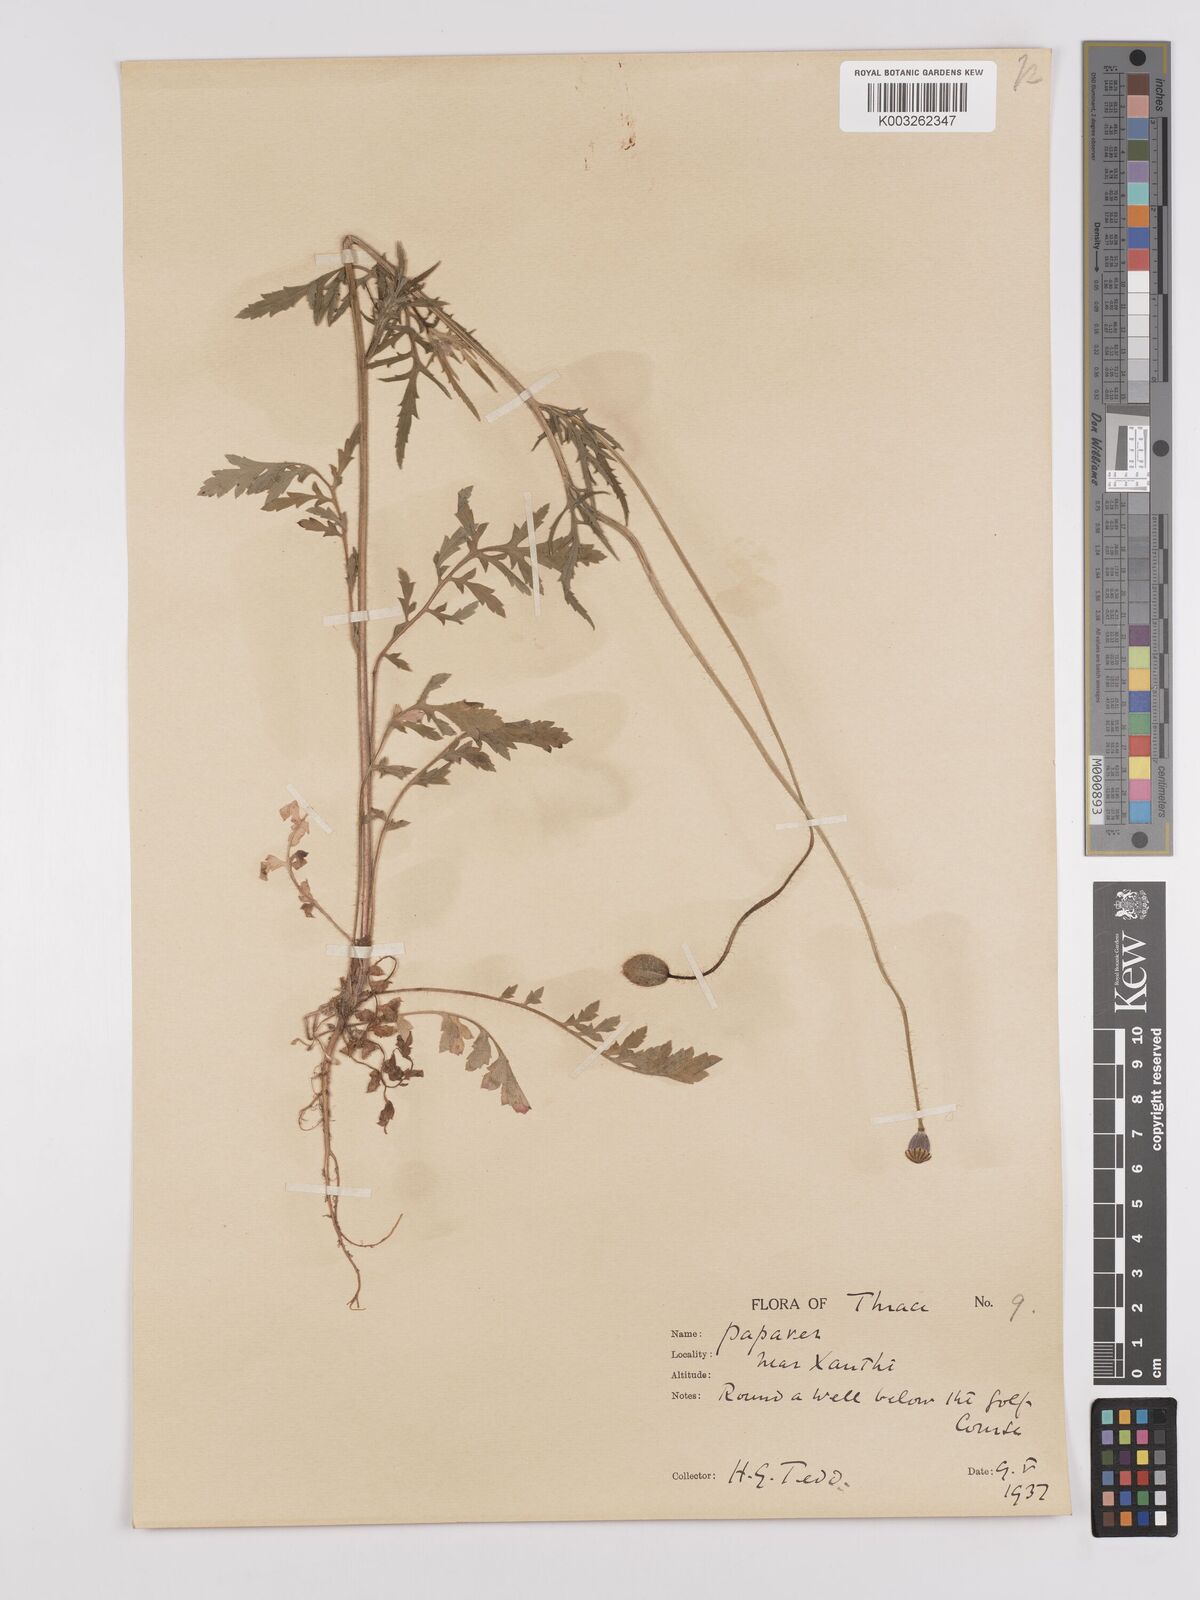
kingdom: Plantae
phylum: Tracheophyta
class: Magnoliopsida
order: Ranunculales
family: Papaveraceae
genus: Papaver
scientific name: Papaver rhoeas
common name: Corn poppy
